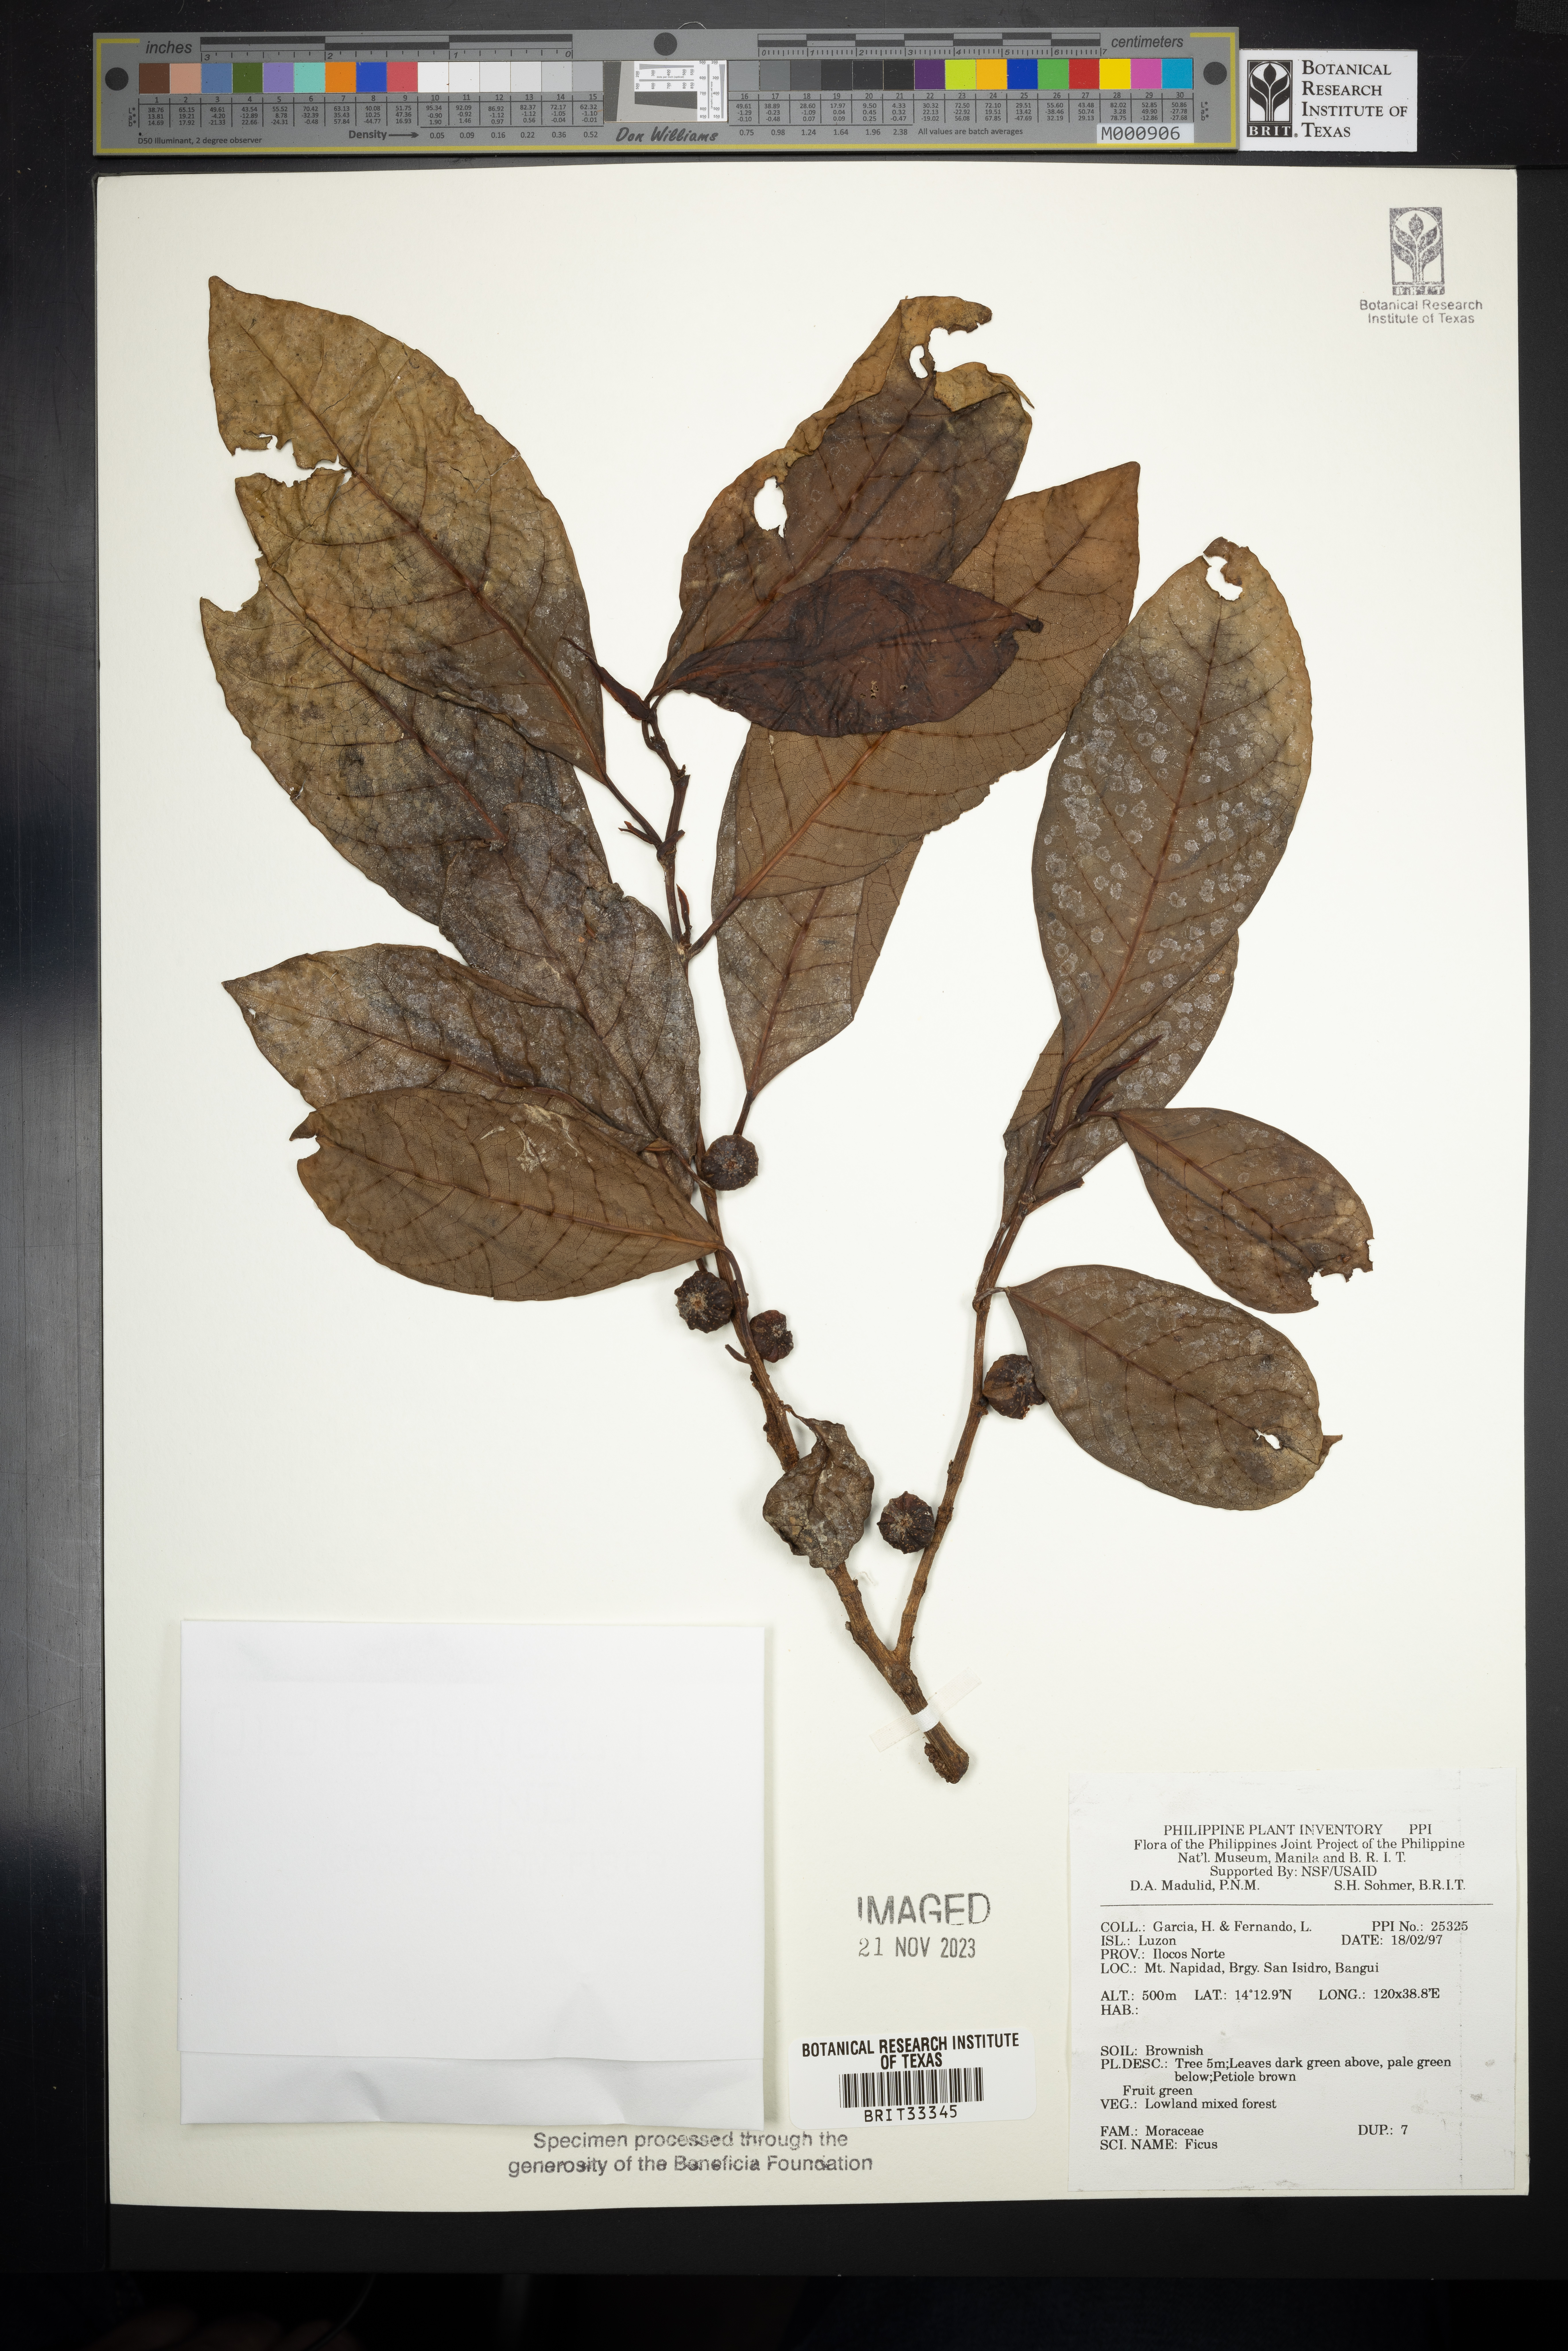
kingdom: Plantae
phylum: Tracheophyta
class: Magnoliopsida
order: Rosales
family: Moraceae
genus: Ficus
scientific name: Ficus
